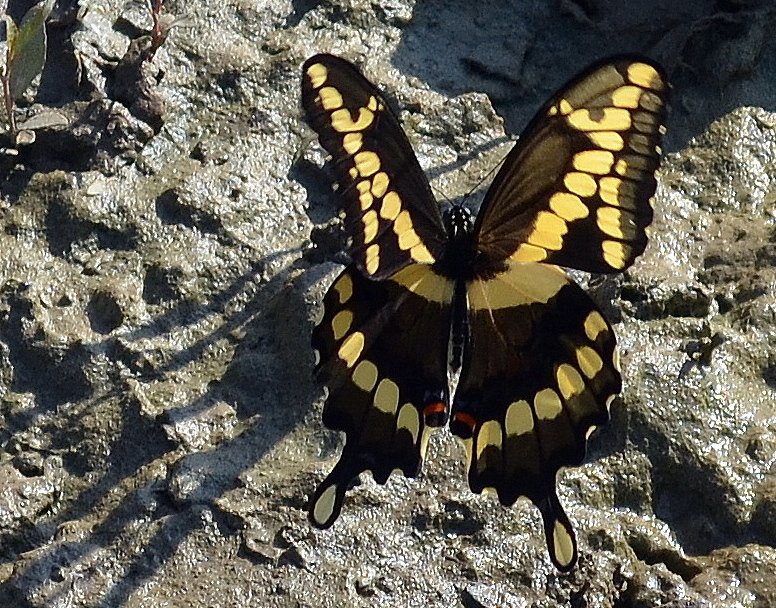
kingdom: Animalia
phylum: Arthropoda
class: Insecta
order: Lepidoptera
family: Papilionidae
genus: Papilio
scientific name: Papilio cresphontes
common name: Eastern Giant Swallowtail
